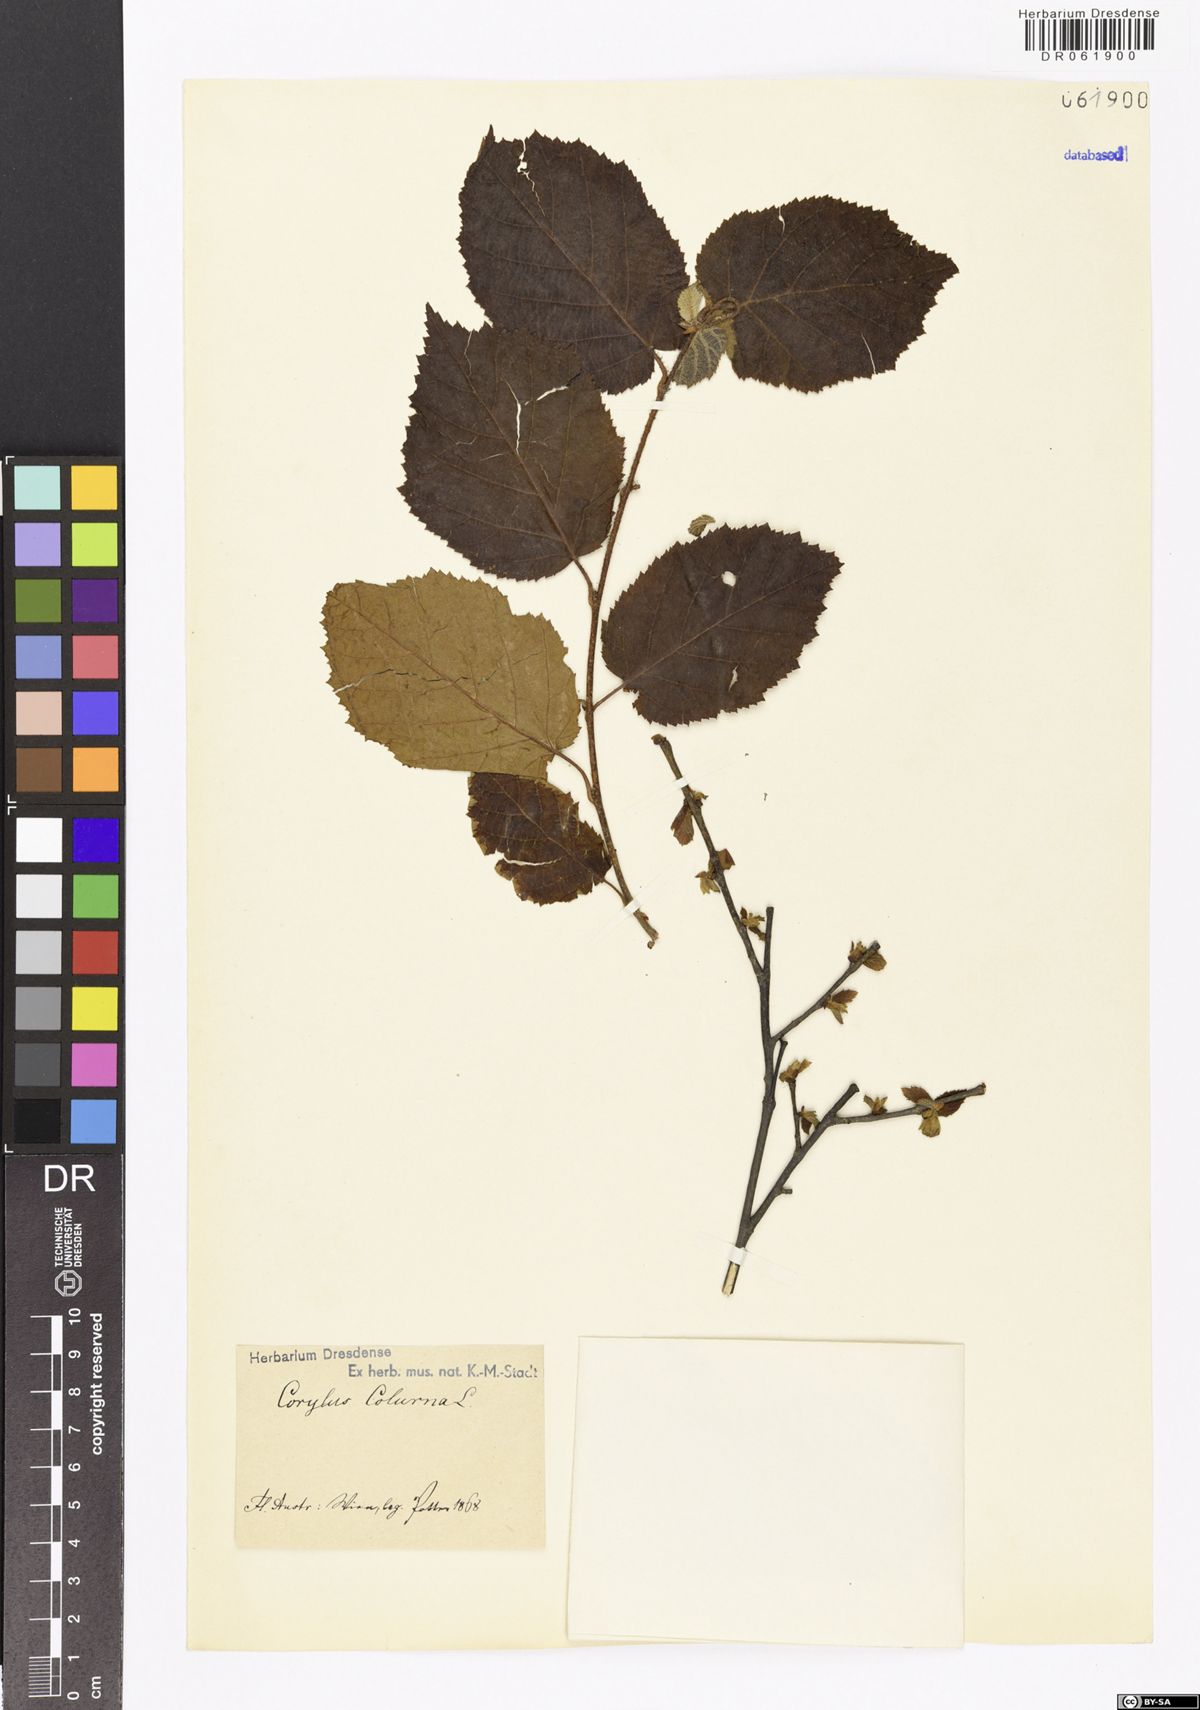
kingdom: Plantae
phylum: Tracheophyta
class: Magnoliopsida
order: Fagales
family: Betulaceae
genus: Corylus
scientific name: Corylus colurna
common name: Turkish hazel
